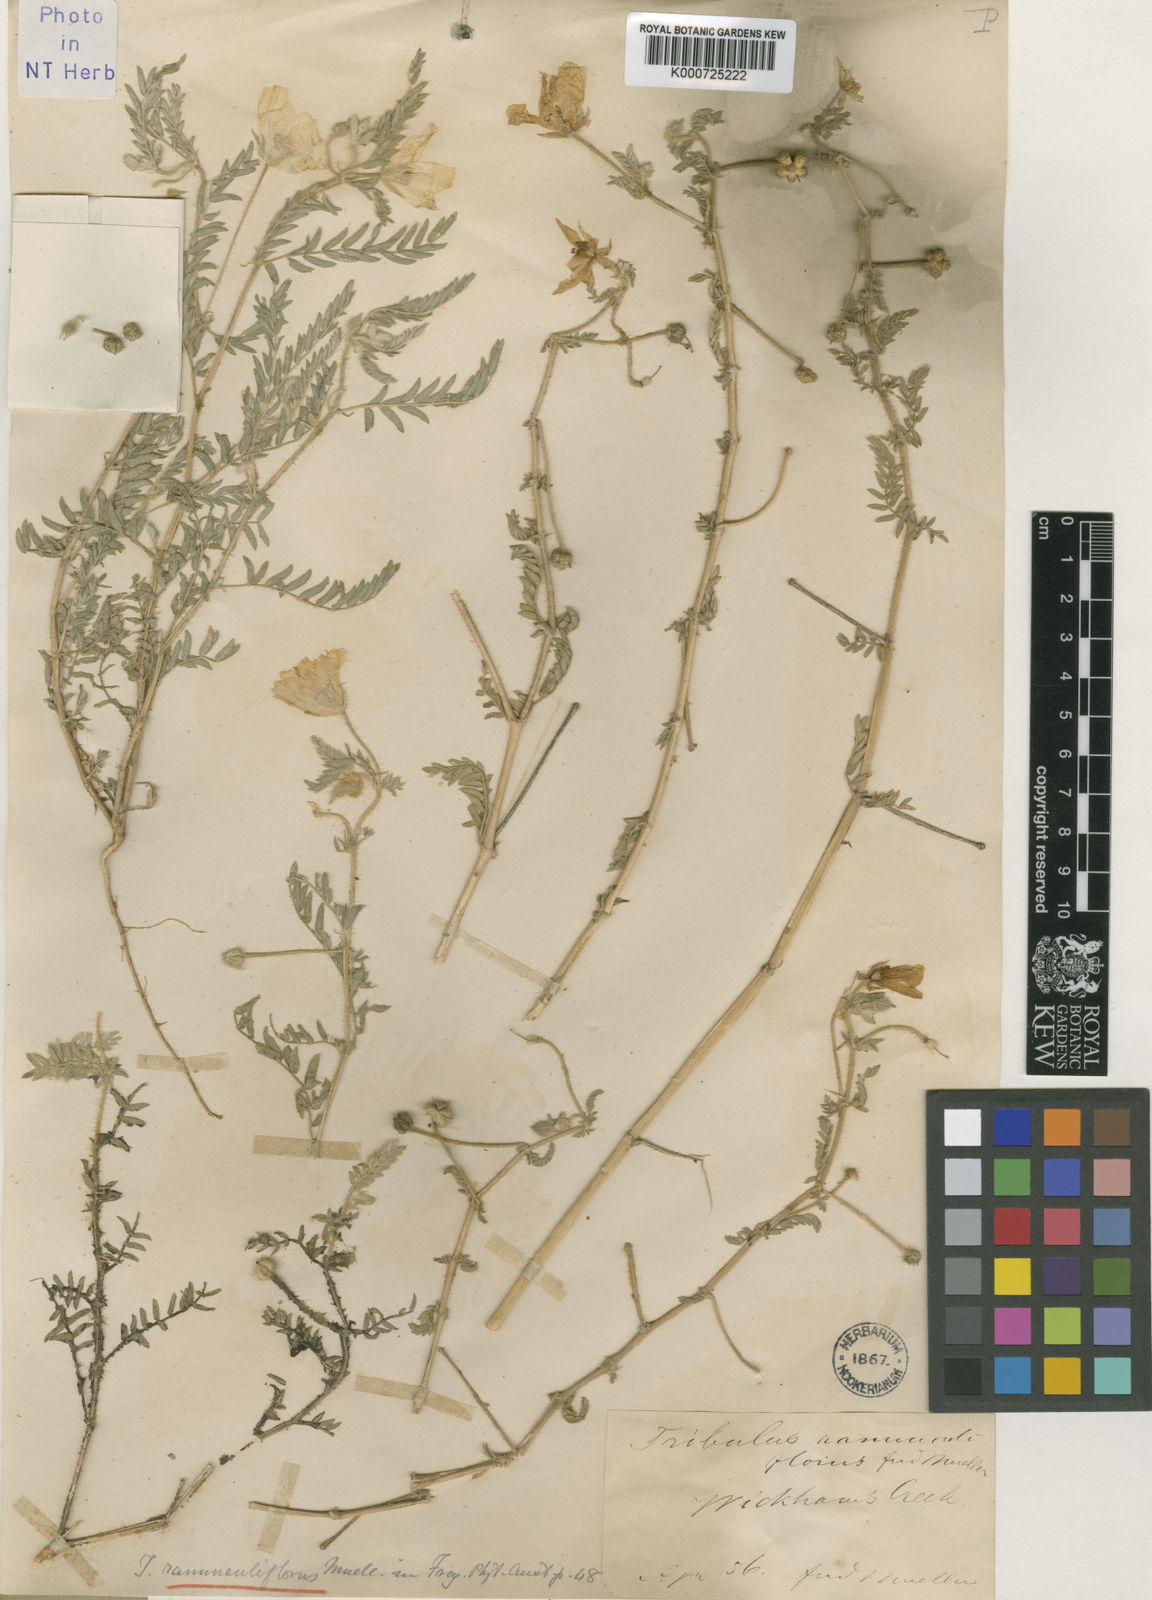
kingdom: Plantae
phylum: Tracheophyta
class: Magnoliopsida
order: Zygophyllales
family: Zygophyllaceae
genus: Tribulus
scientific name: Tribulus ranunculiflorus
